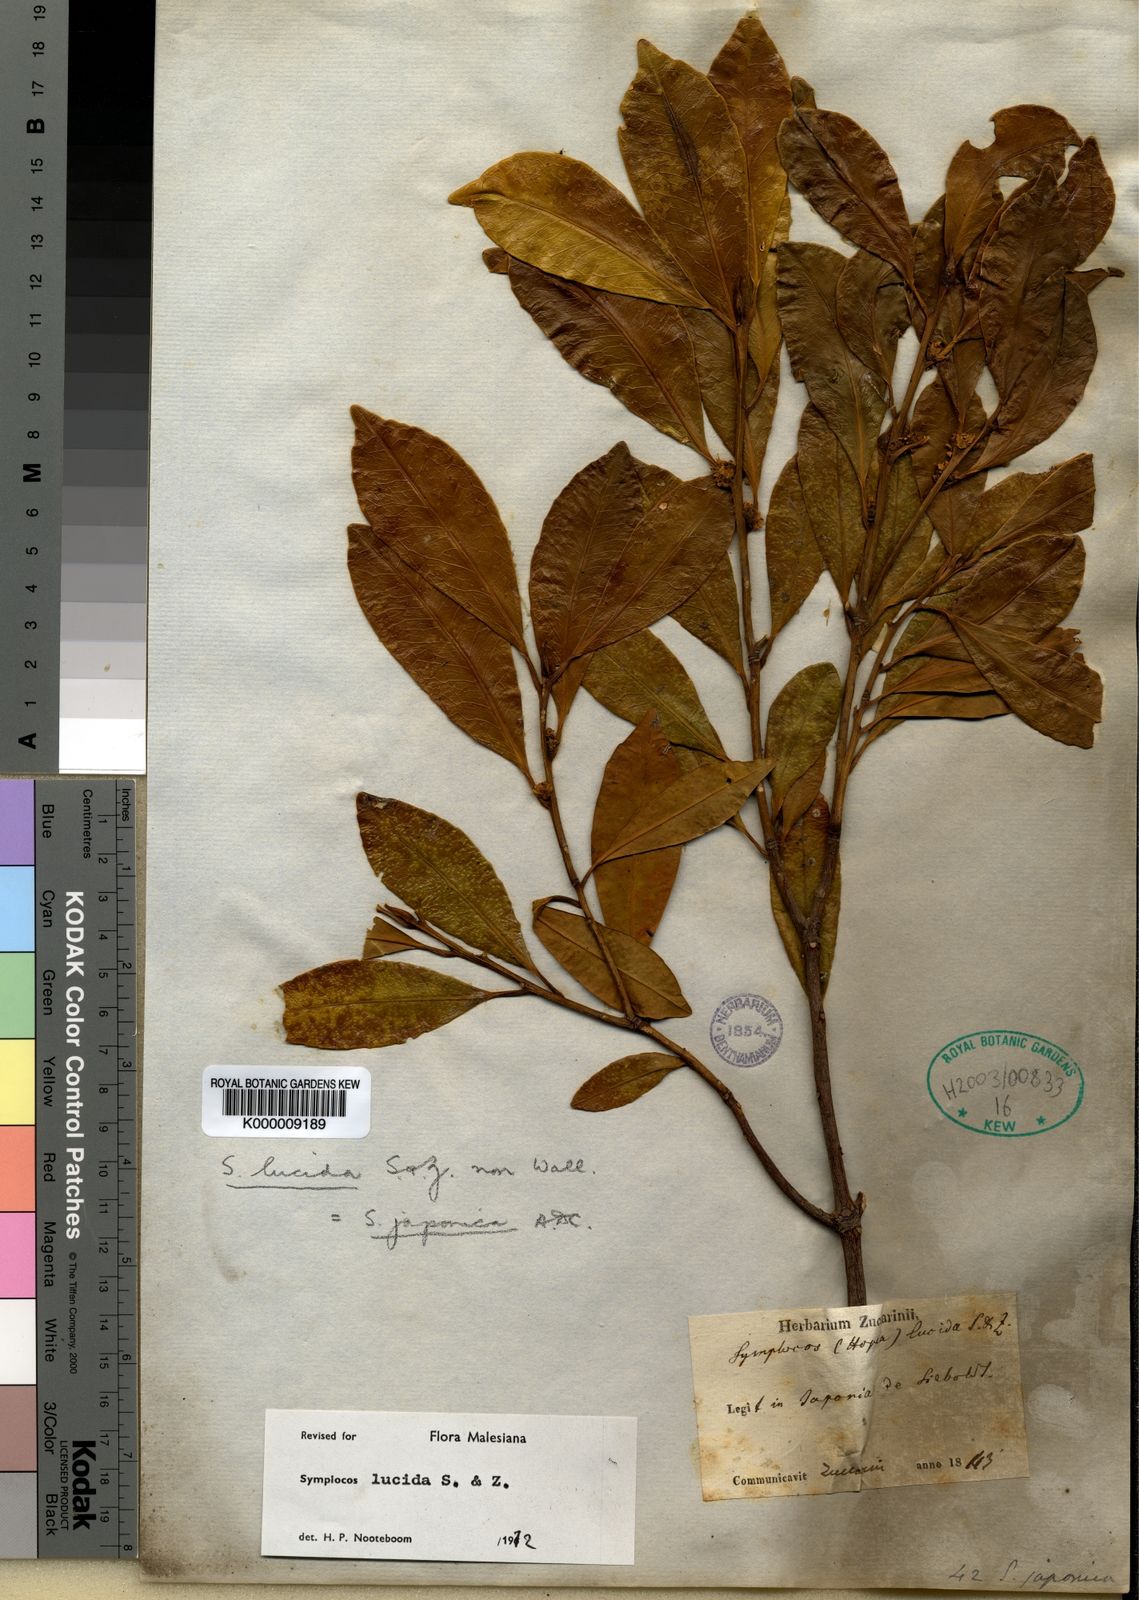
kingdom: Plantae
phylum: Tracheophyta
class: Magnoliopsida
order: Ericales
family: Symplocaceae
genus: Symplocos
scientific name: Symplocos nakaharae
